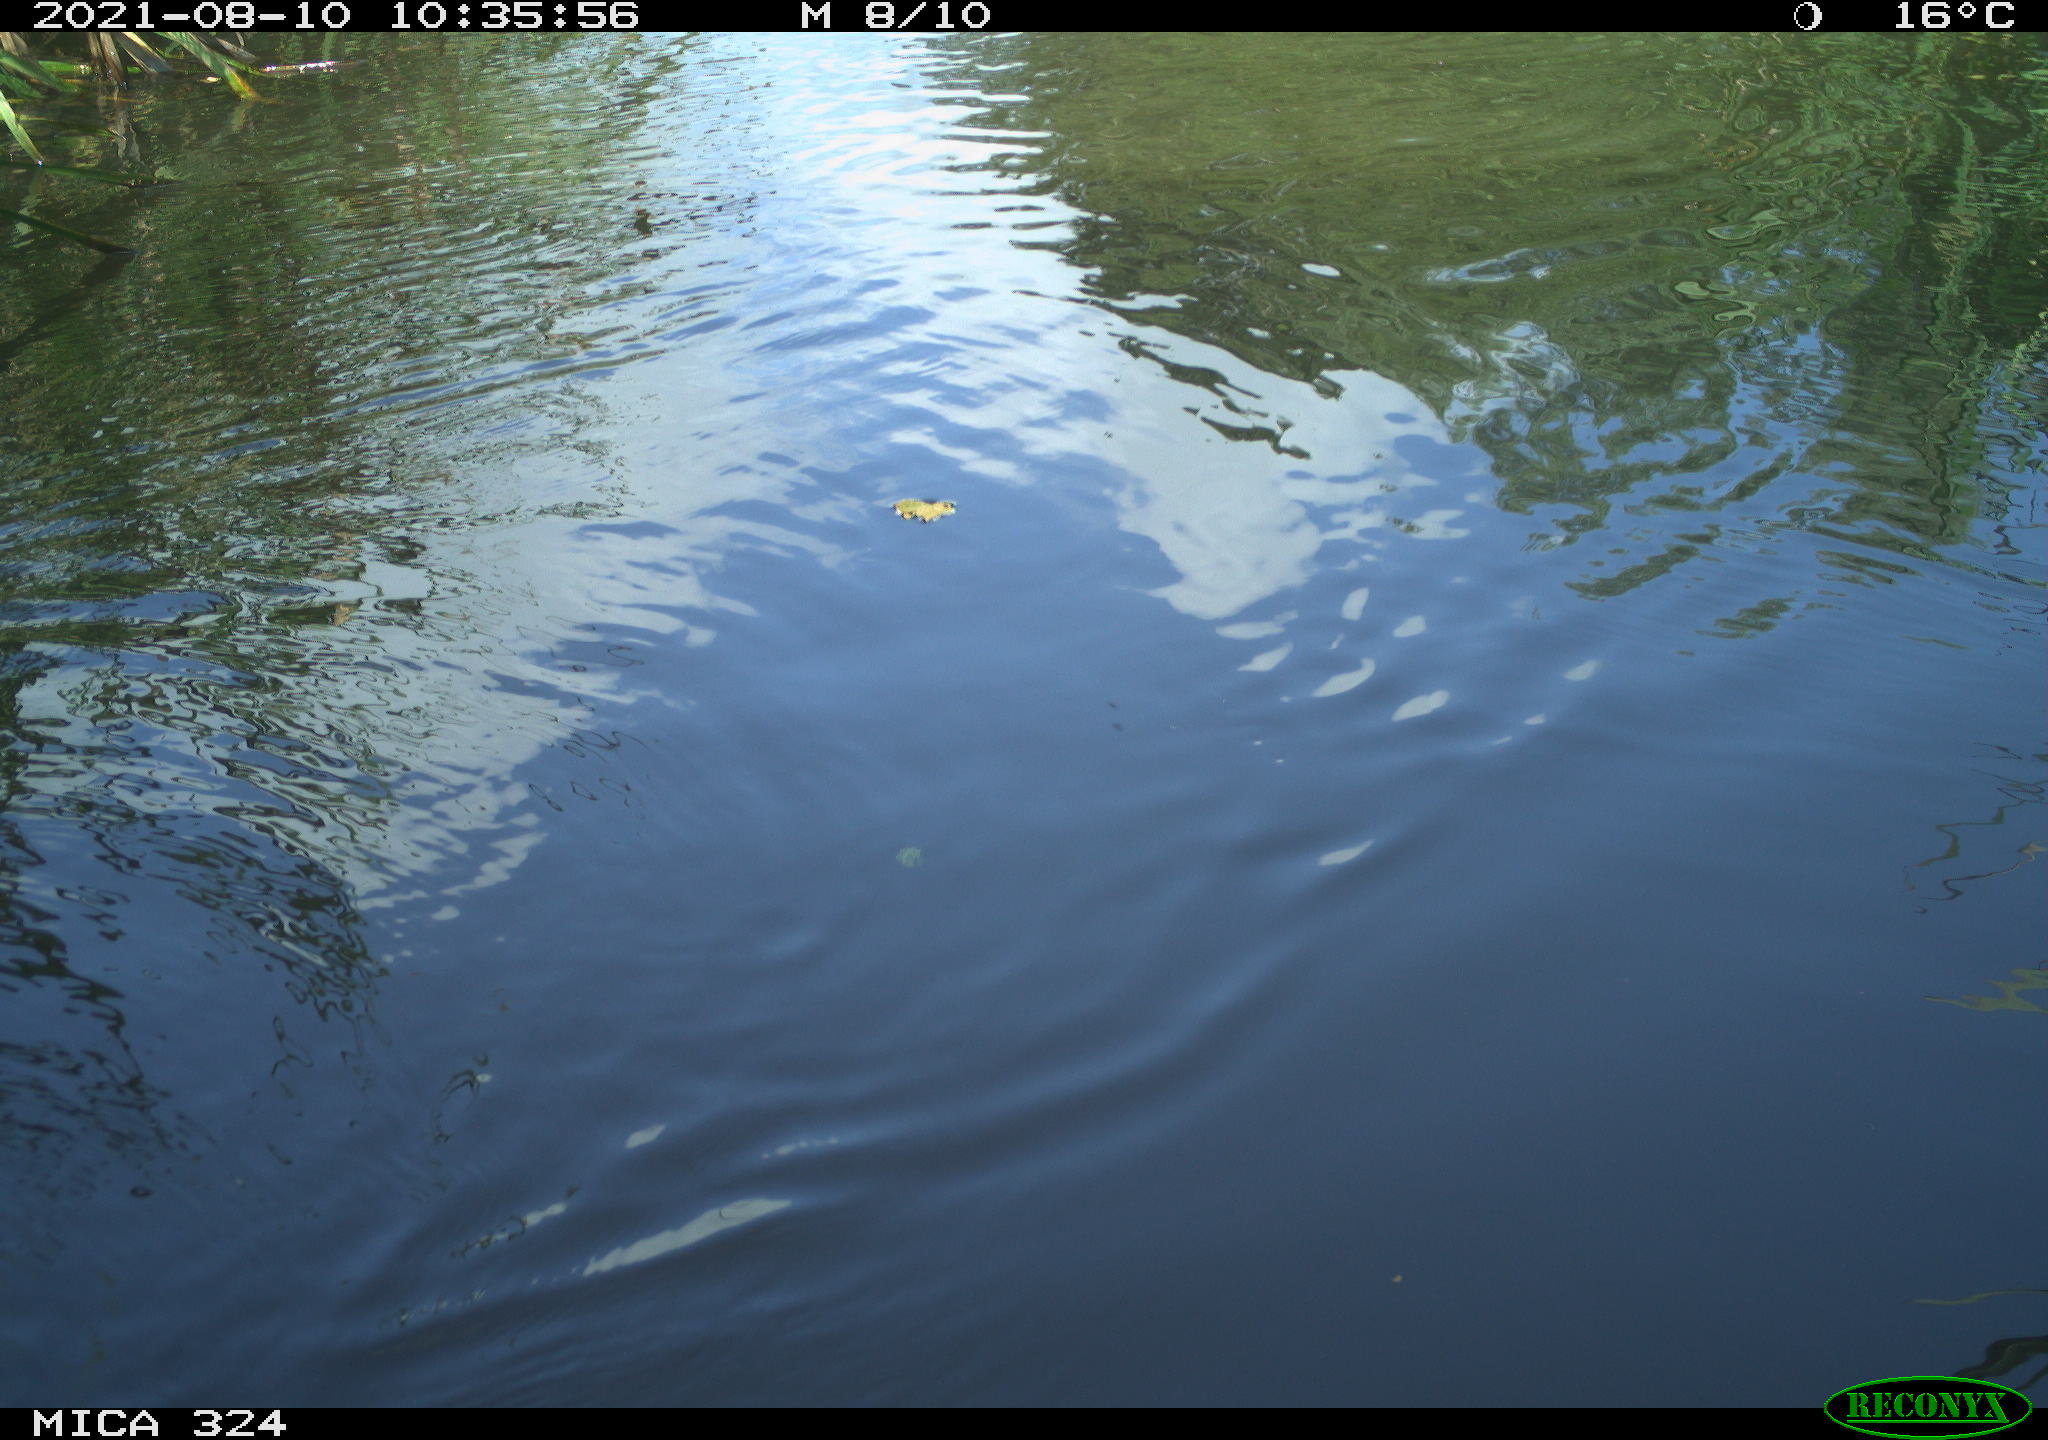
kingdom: Animalia
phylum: Chordata
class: Mammalia
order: Rodentia
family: Cricetidae
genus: Ondatra
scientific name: Ondatra zibethicus
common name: Muskrat
